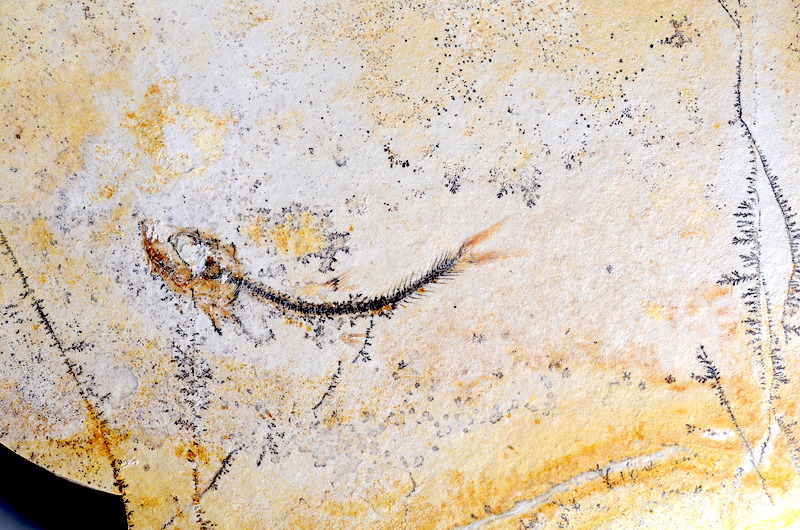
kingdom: Animalia
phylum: Chordata
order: Salmoniformes
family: Orthogonikleithridae
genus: Orthogonikleithrus
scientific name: Orthogonikleithrus hoelli
